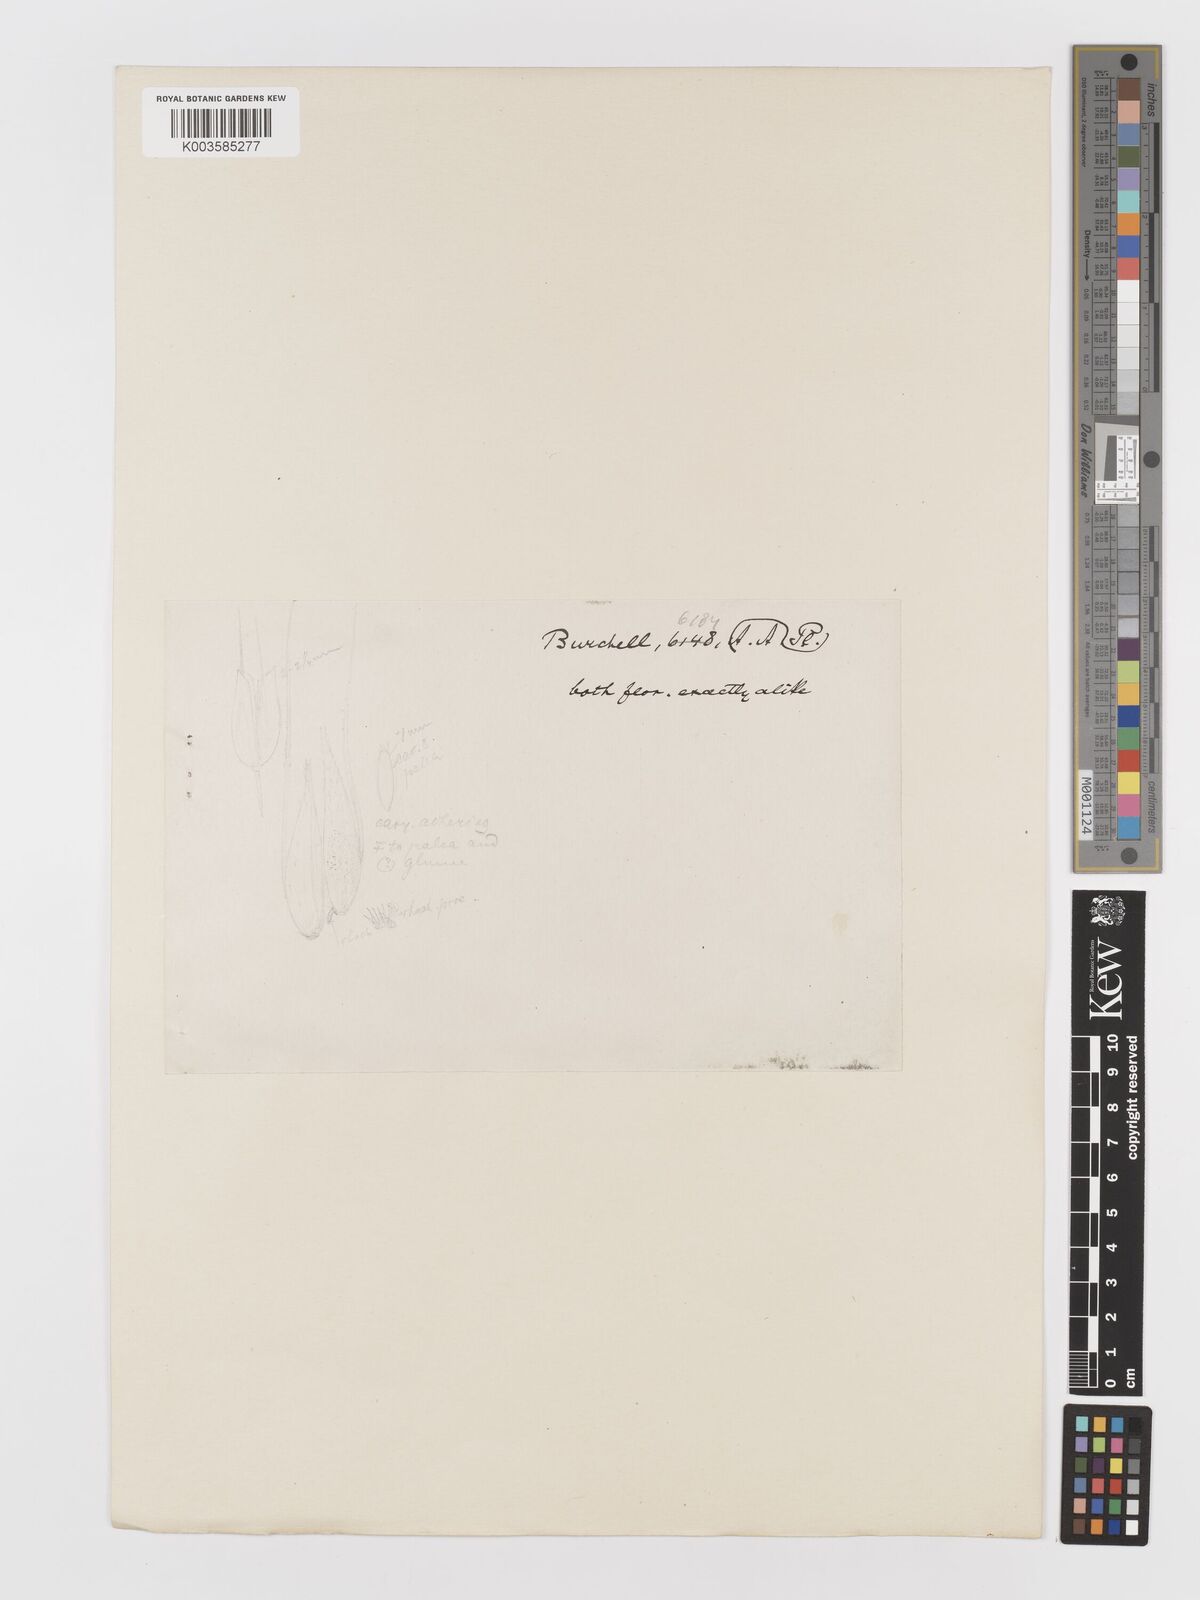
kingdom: Plantae
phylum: Tracheophyta
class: Liliopsida
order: Poales
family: Poaceae
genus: Aira
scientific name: Aira cupaniana
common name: Silver hairgrass
